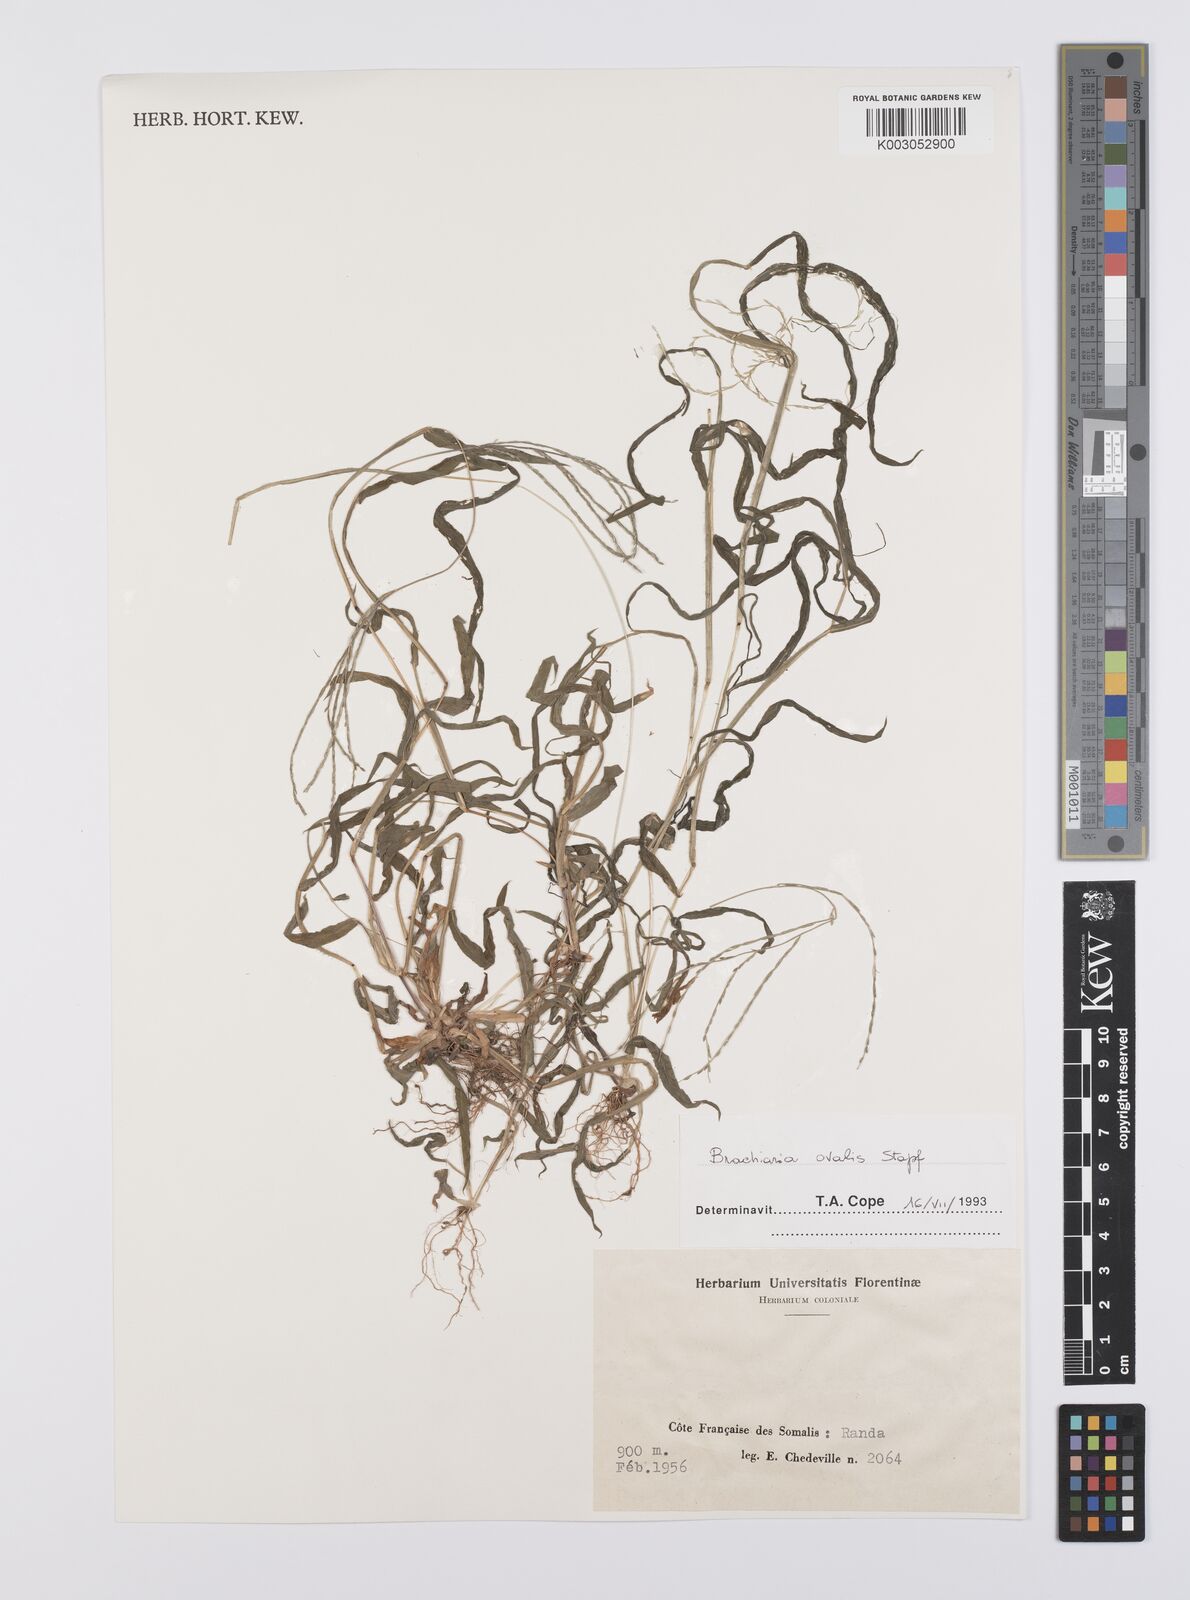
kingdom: Plantae
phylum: Tracheophyta
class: Liliopsida
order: Poales
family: Poaceae
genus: Urochloa
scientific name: Urochloa ovalis
